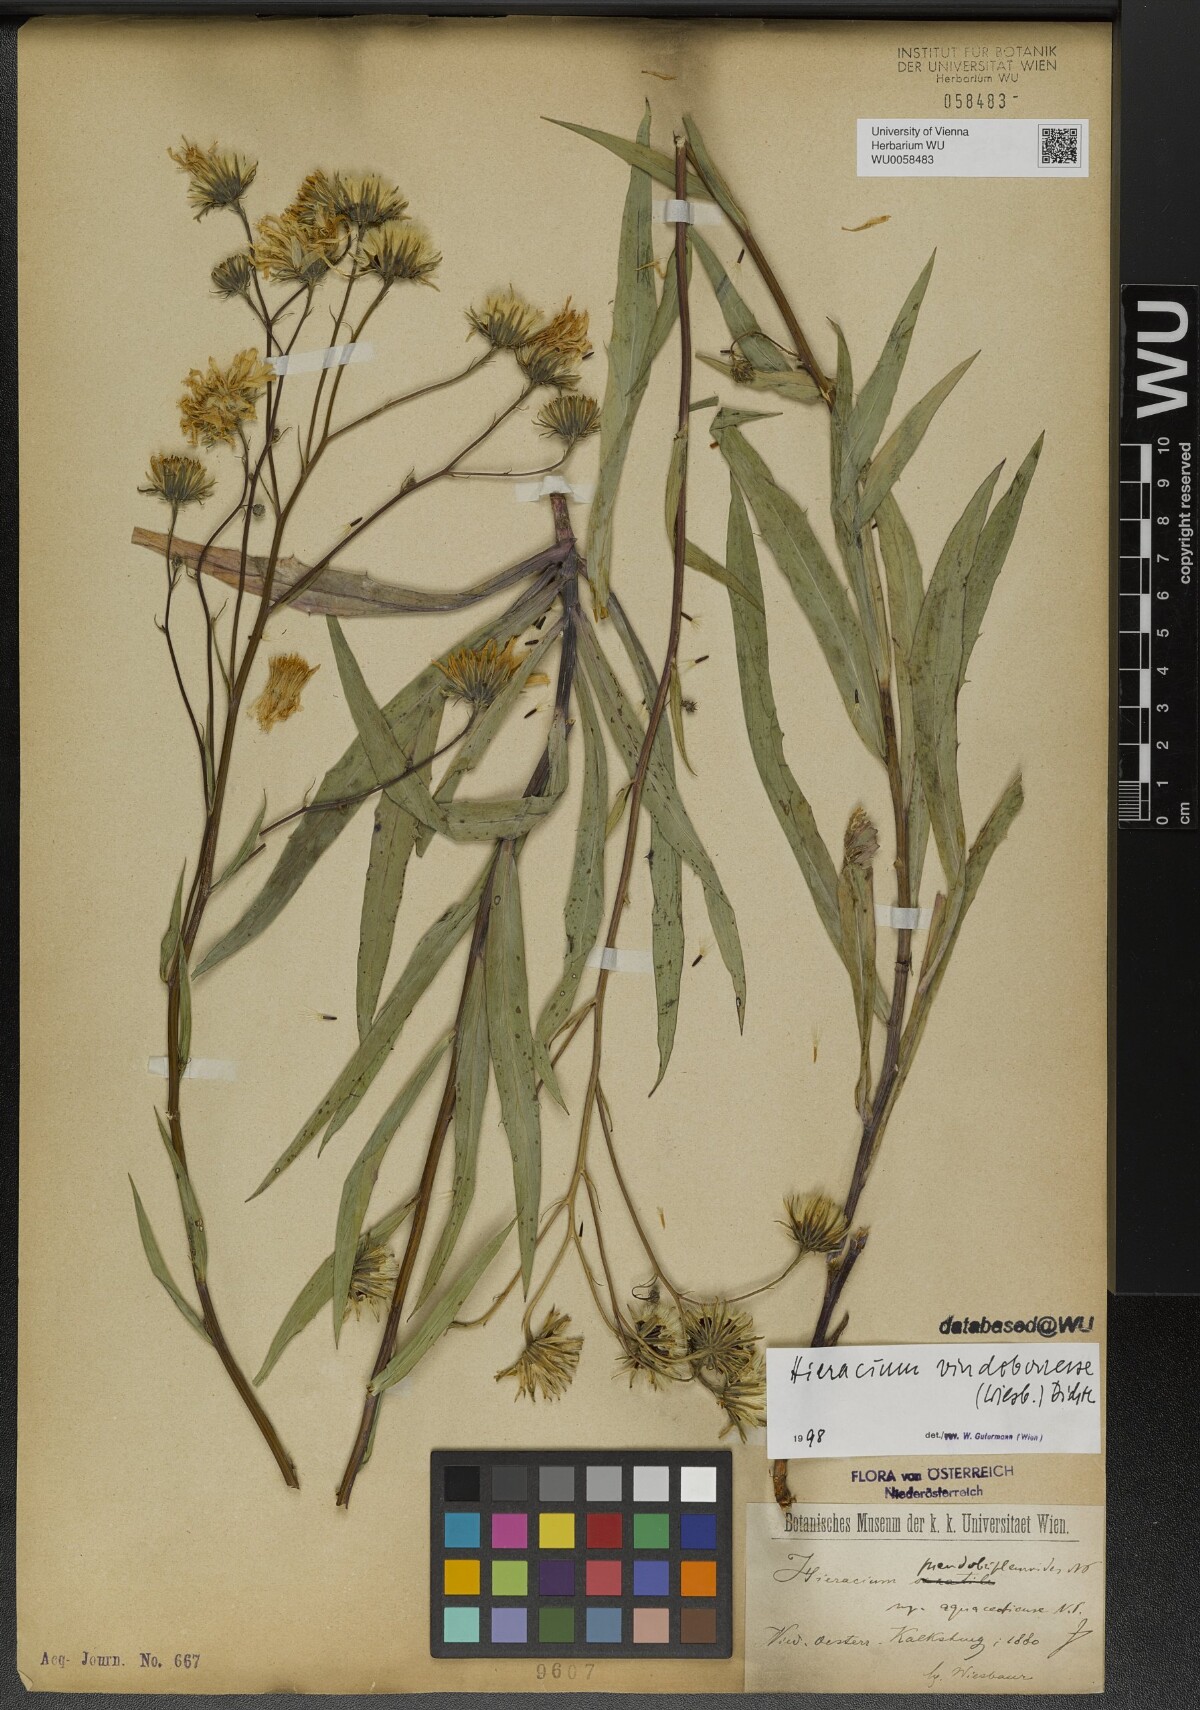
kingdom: Plantae
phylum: Tracheophyta
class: Magnoliopsida
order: Asterales
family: Asteraceae
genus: Hieracium
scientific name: Hieracium vindobonense
